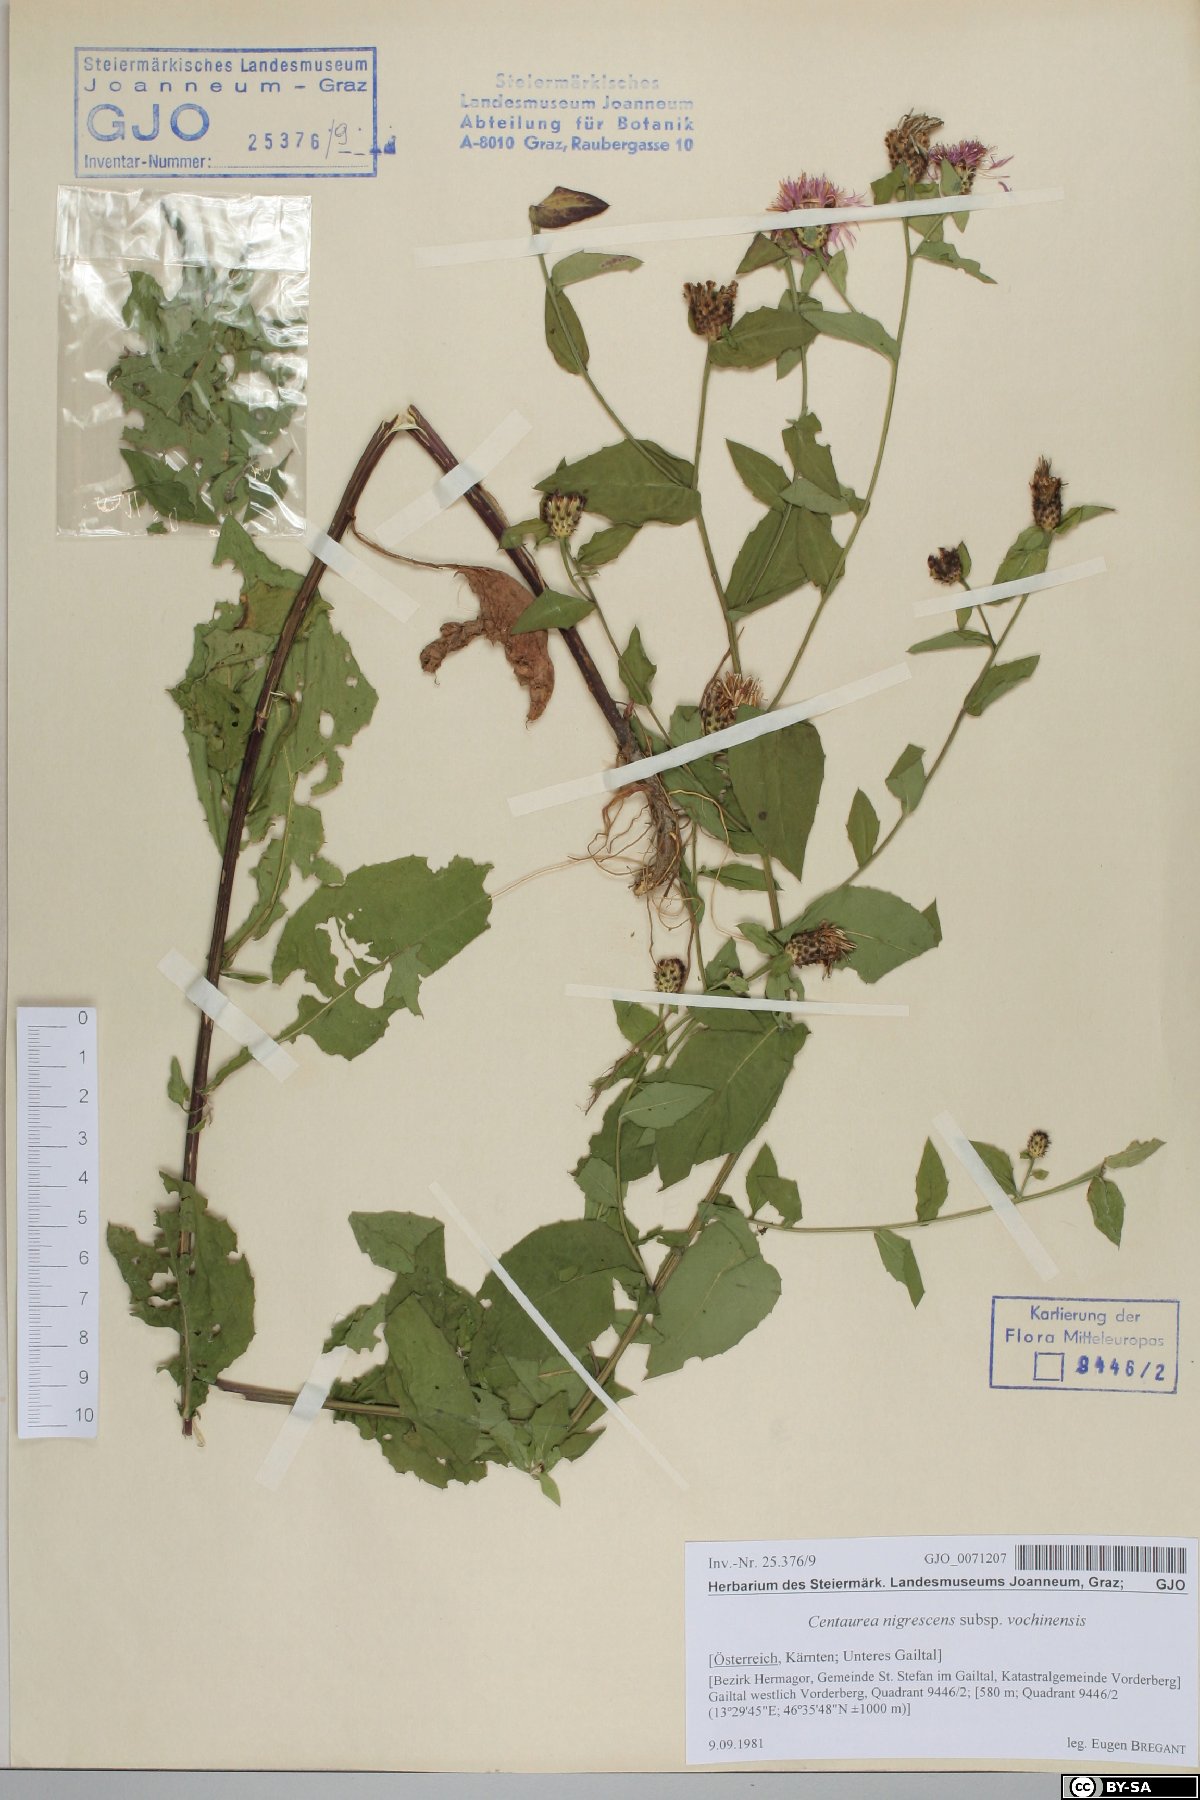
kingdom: Plantae
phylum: Tracheophyta
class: Magnoliopsida
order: Asterales
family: Asteraceae
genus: Centaurea
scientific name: Centaurea carniolica
